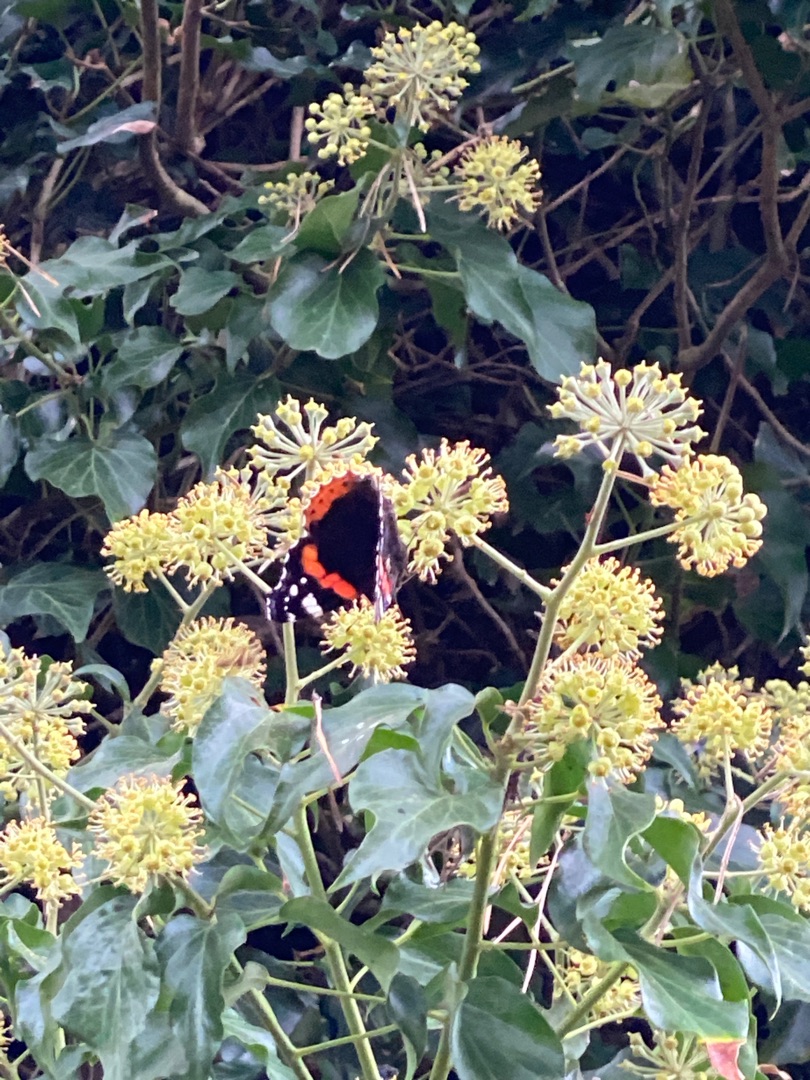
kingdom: Animalia
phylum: Arthropoda
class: Insecta
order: Lepidoptera
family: Nymphalidae
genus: Vanessa
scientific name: Vanessa atalanta
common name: Admiral
